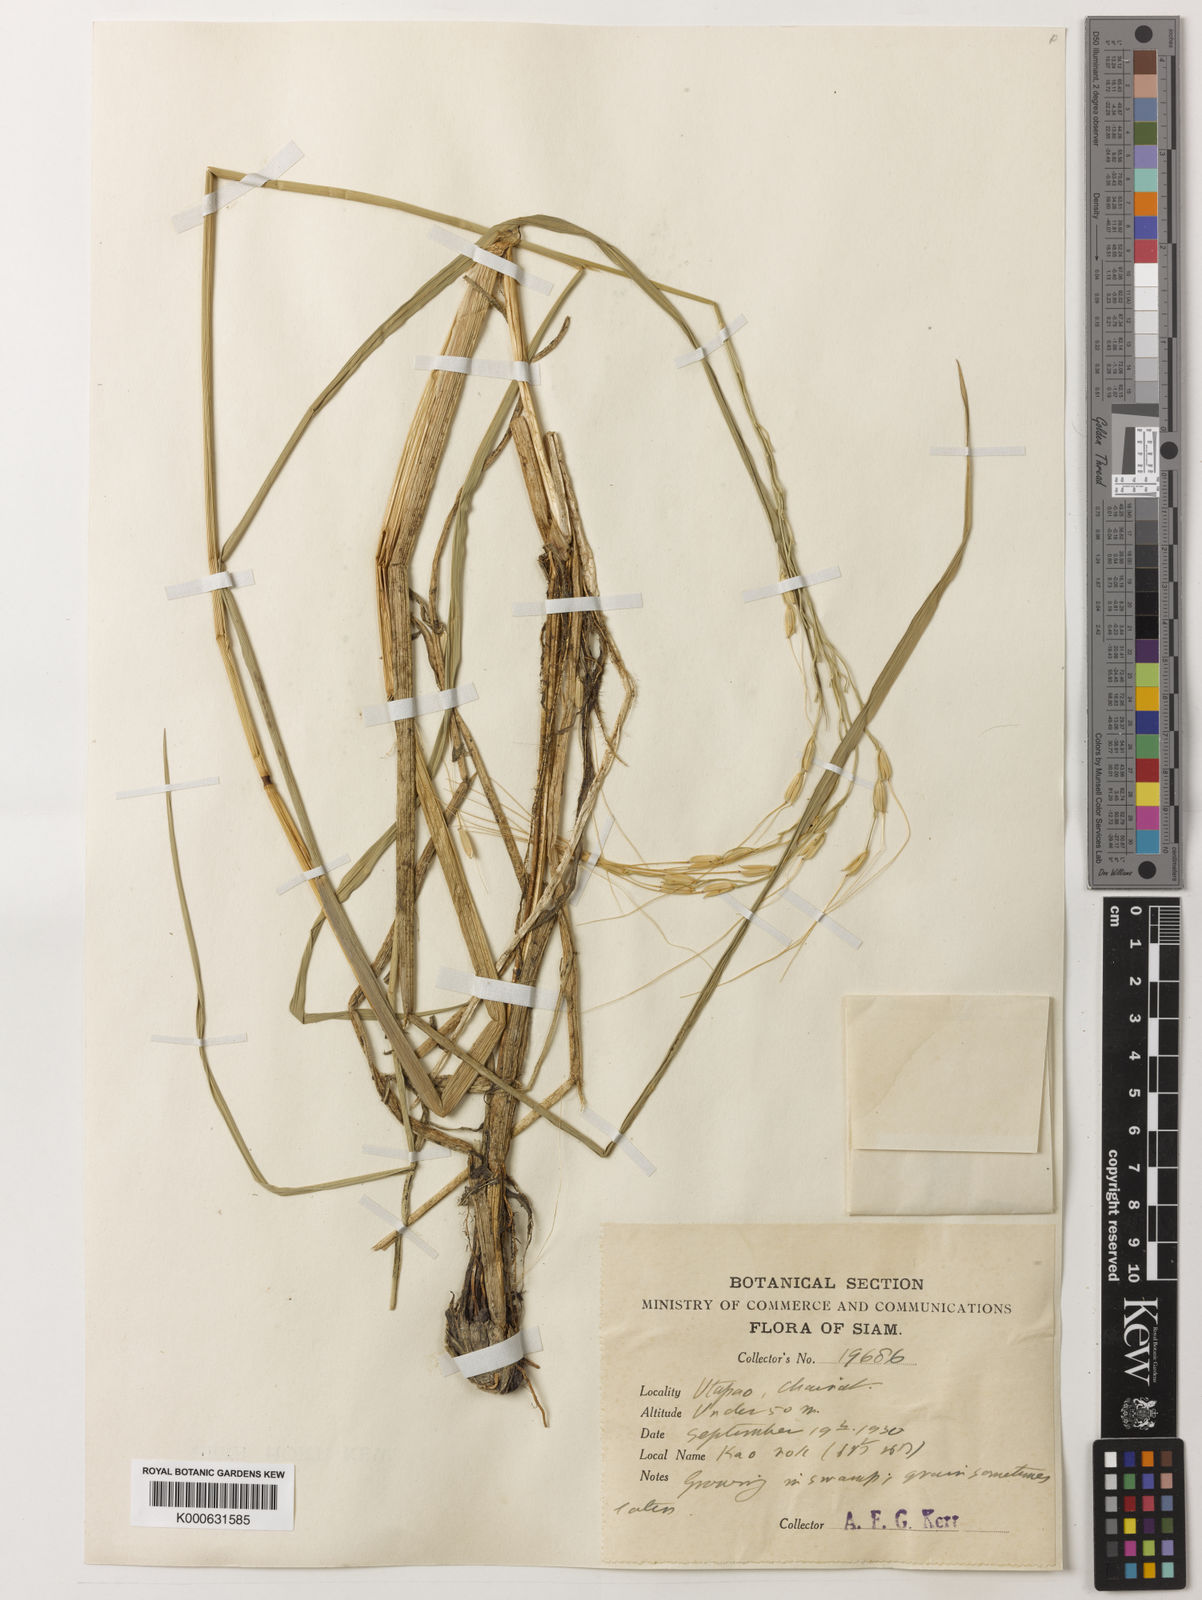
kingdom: Plantae
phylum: Tracheophyta
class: Liliopsida
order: Poales
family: Poaceae
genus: Oryza
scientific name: Oryza rufipogon
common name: Red rice
